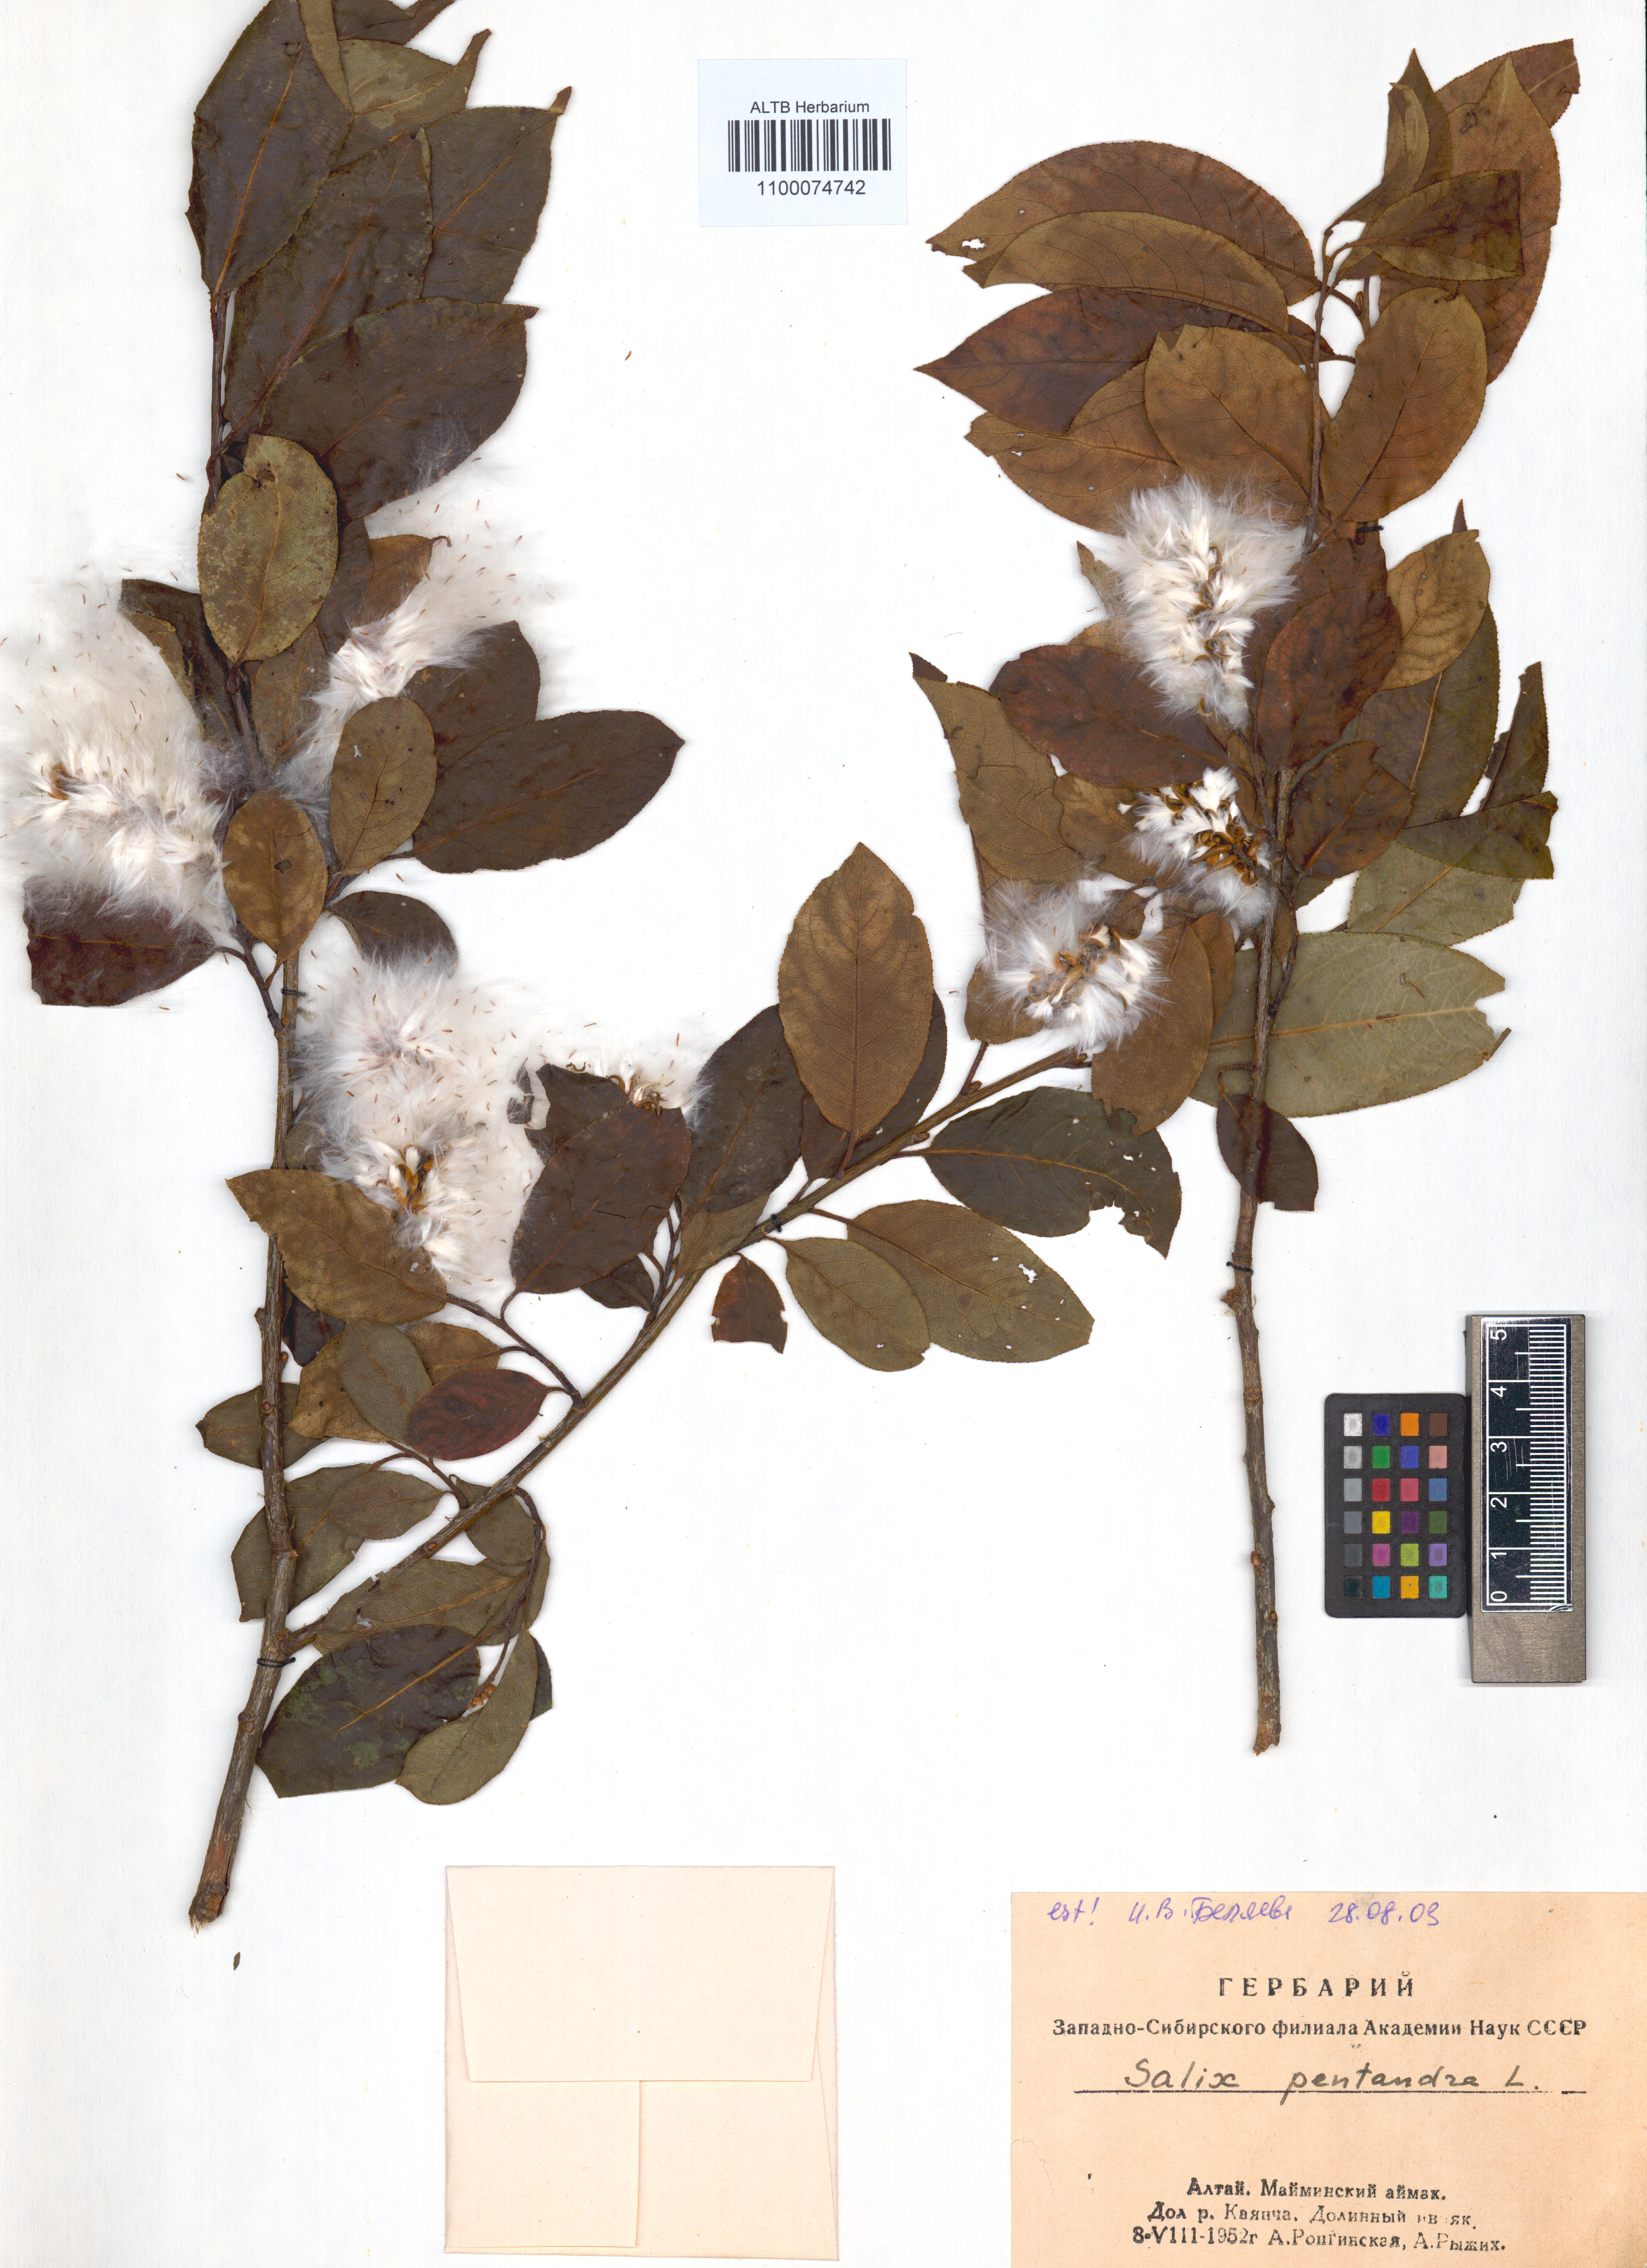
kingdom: Plantae
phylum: Tracheophyta
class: Magnoliopsida
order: Malpighiales
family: Salicaceae
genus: Salix
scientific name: Salix pentandra
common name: Bay willow
